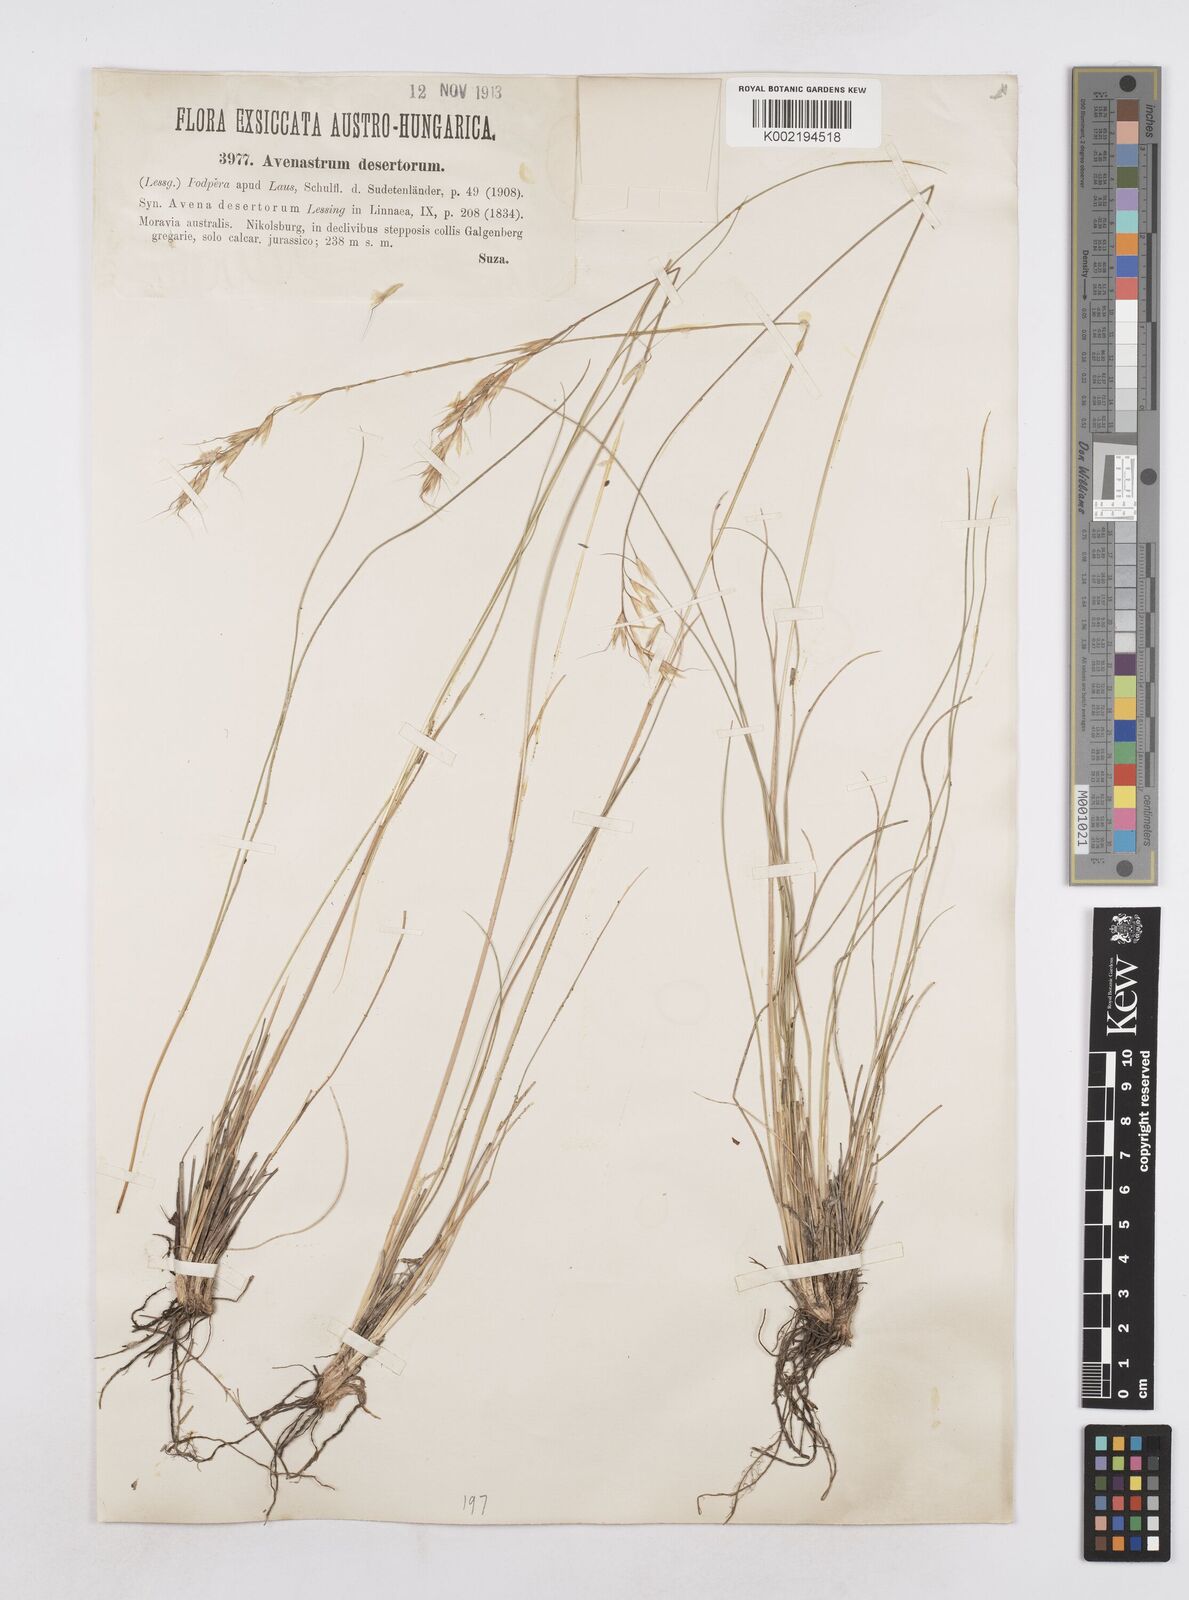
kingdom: Plantae
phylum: Tracheophyta
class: Liliopsida
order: Poales
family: Poaceae
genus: Helictotrichon
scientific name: Helictotrichon desertorum
